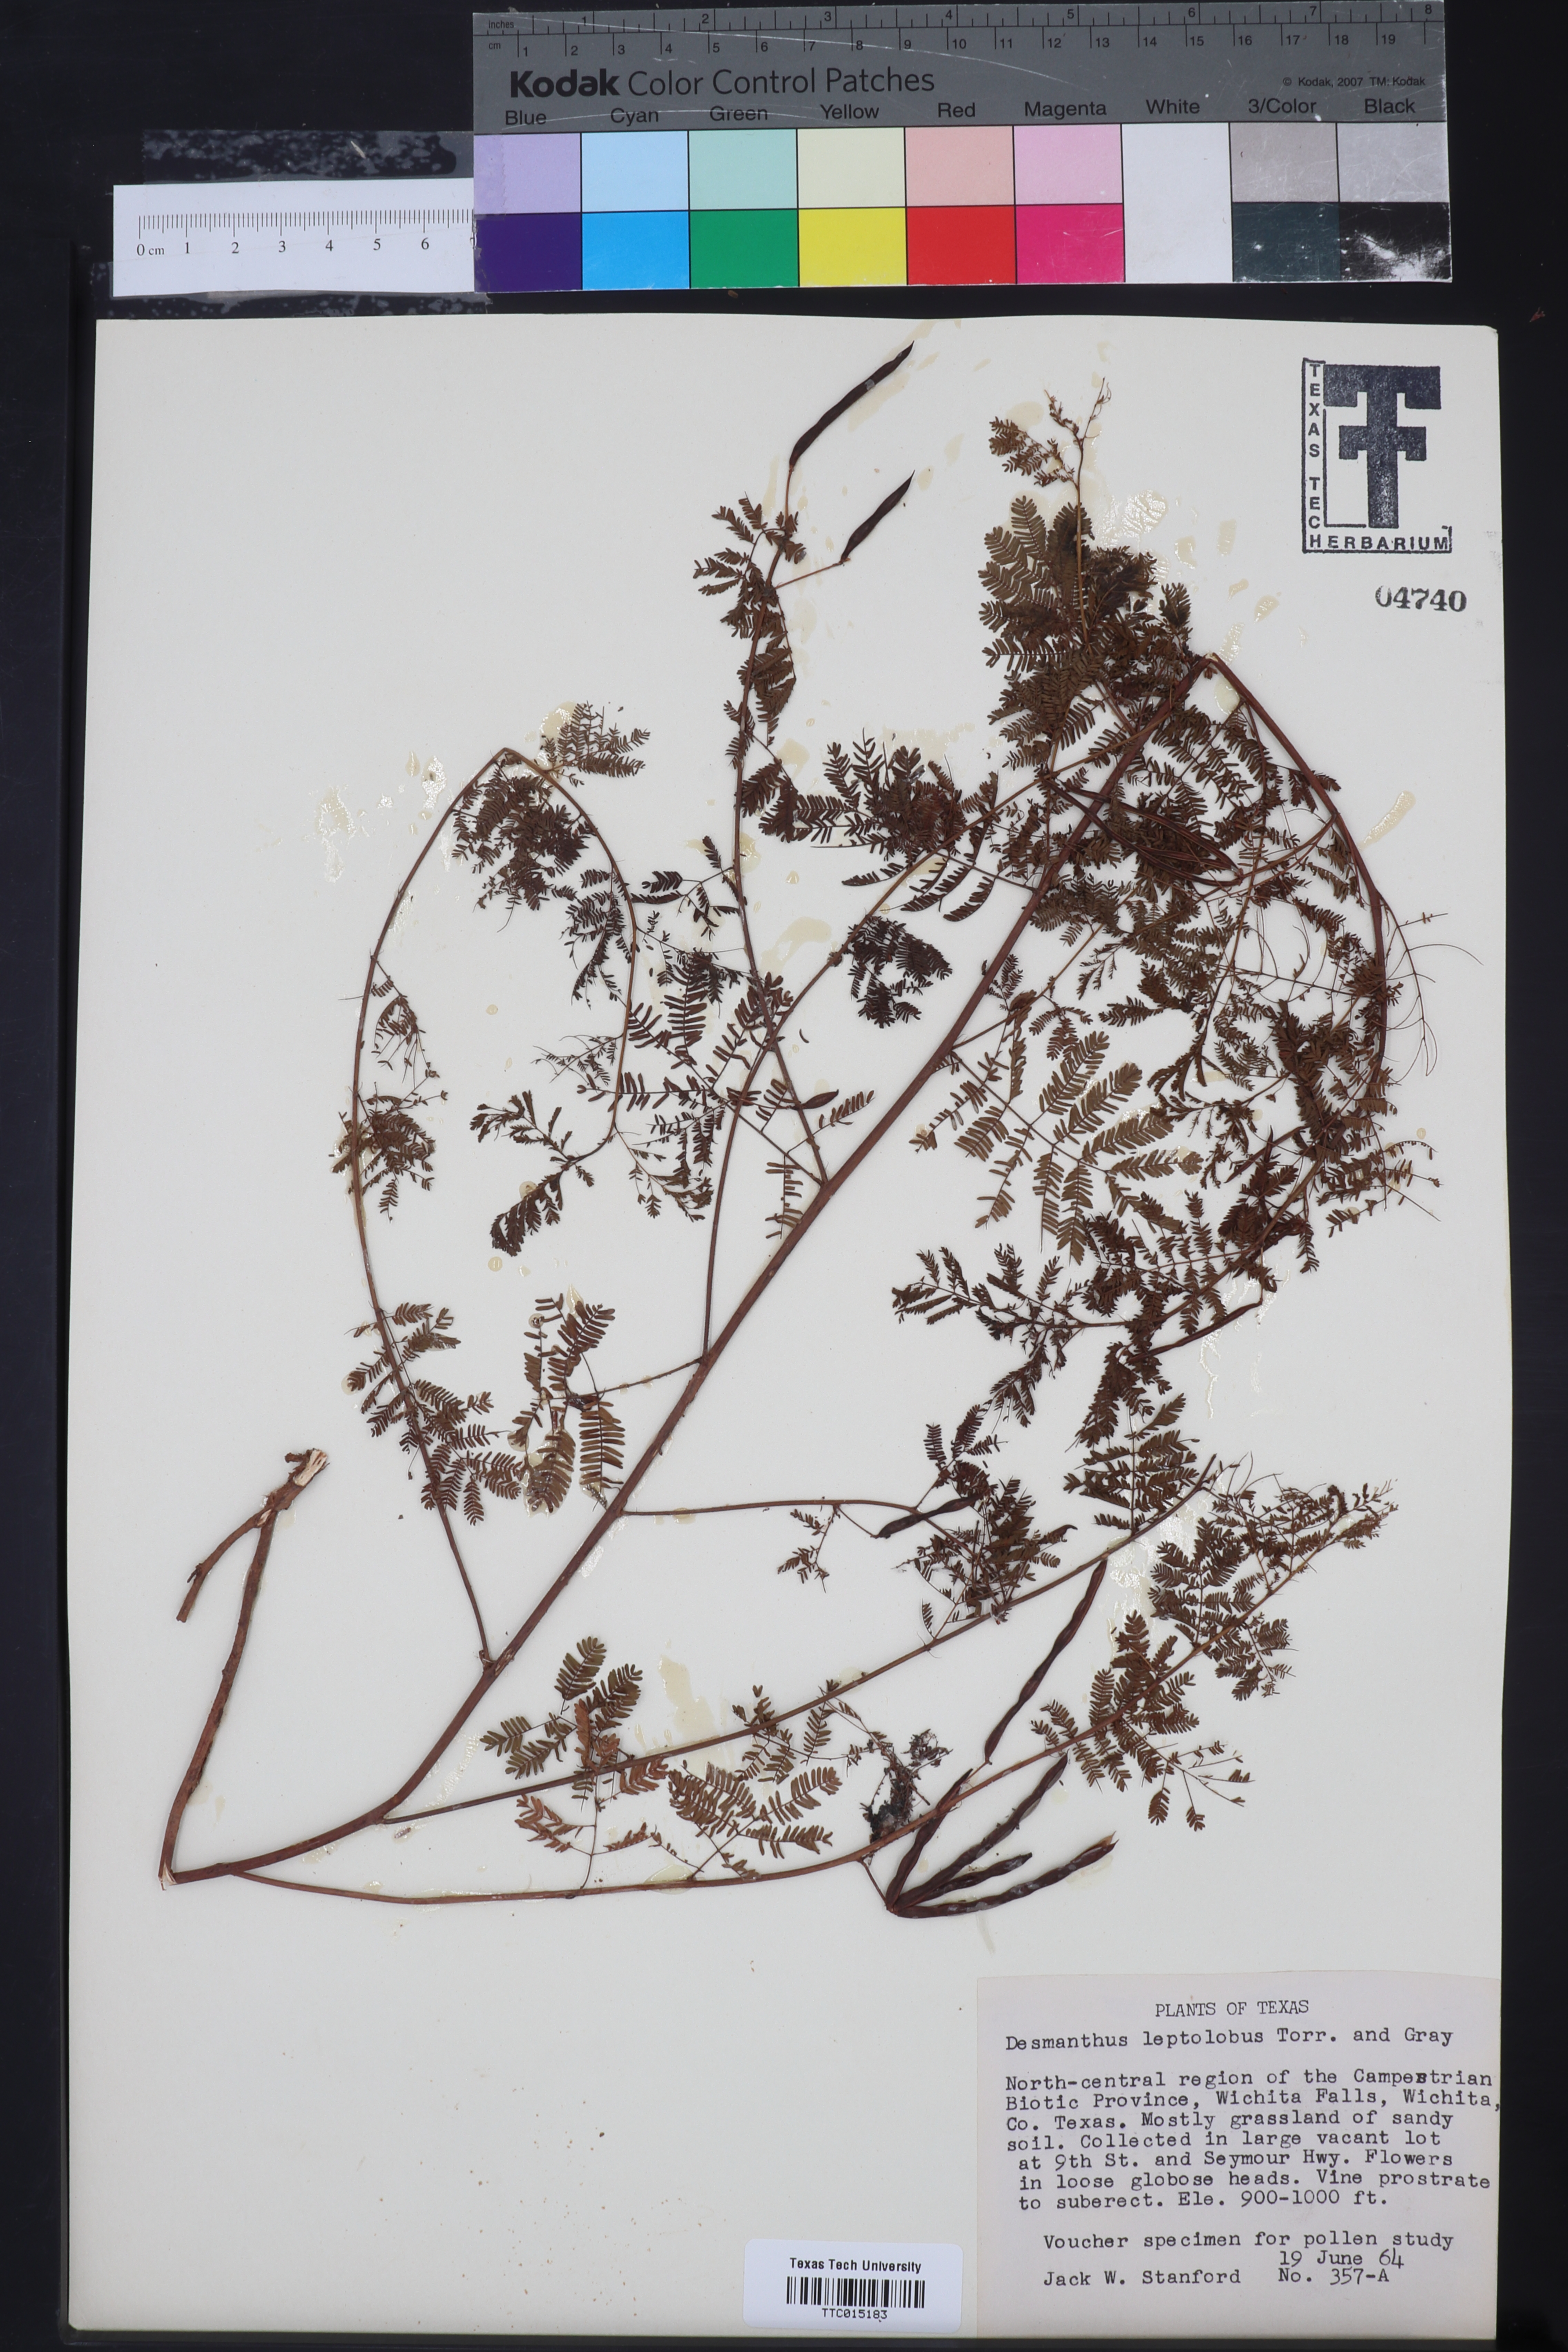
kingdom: Plantae
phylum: Tracheophyta
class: Magnoliopsida
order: Fabales
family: Fabaceae
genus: Desmanthus
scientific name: Desmanthus leptolobus
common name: Prairie-mimosa
